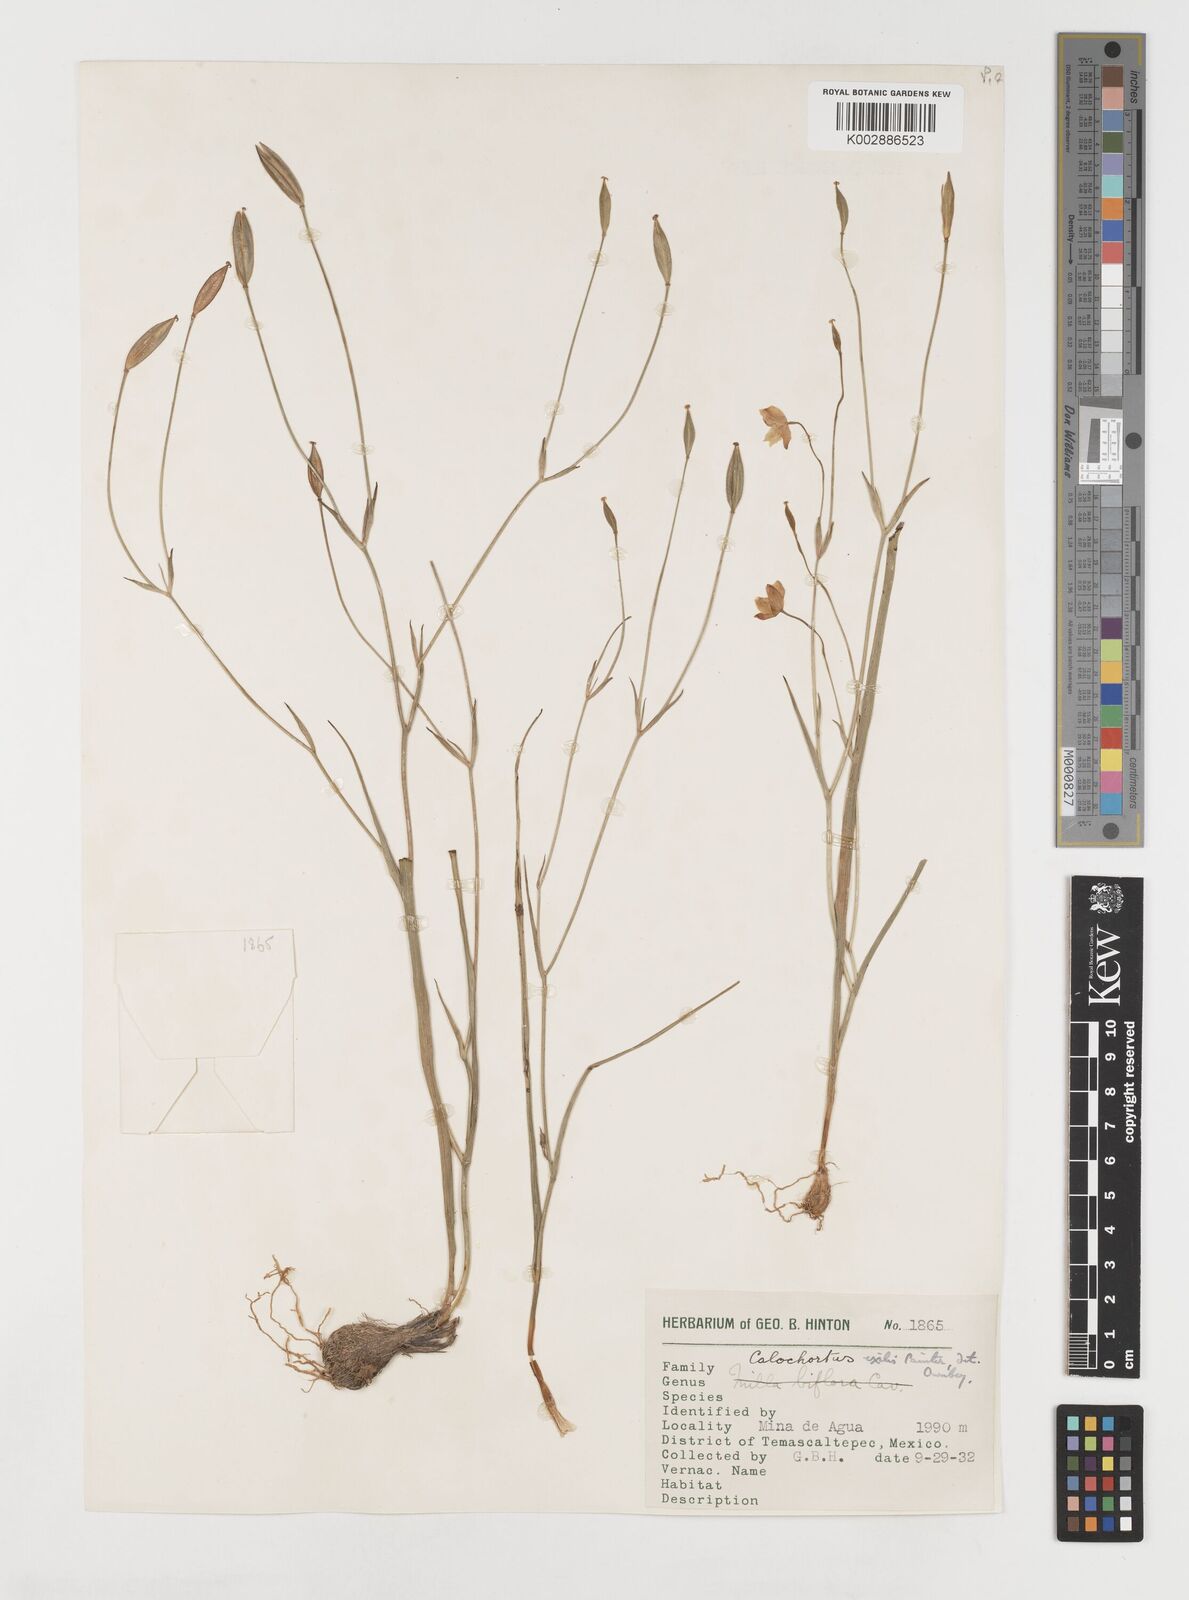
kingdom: Plantae
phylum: Tracheophyta
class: Liliopsida
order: Liliales
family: Liliaceae
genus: Calochortus
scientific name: Calochortus exilis
